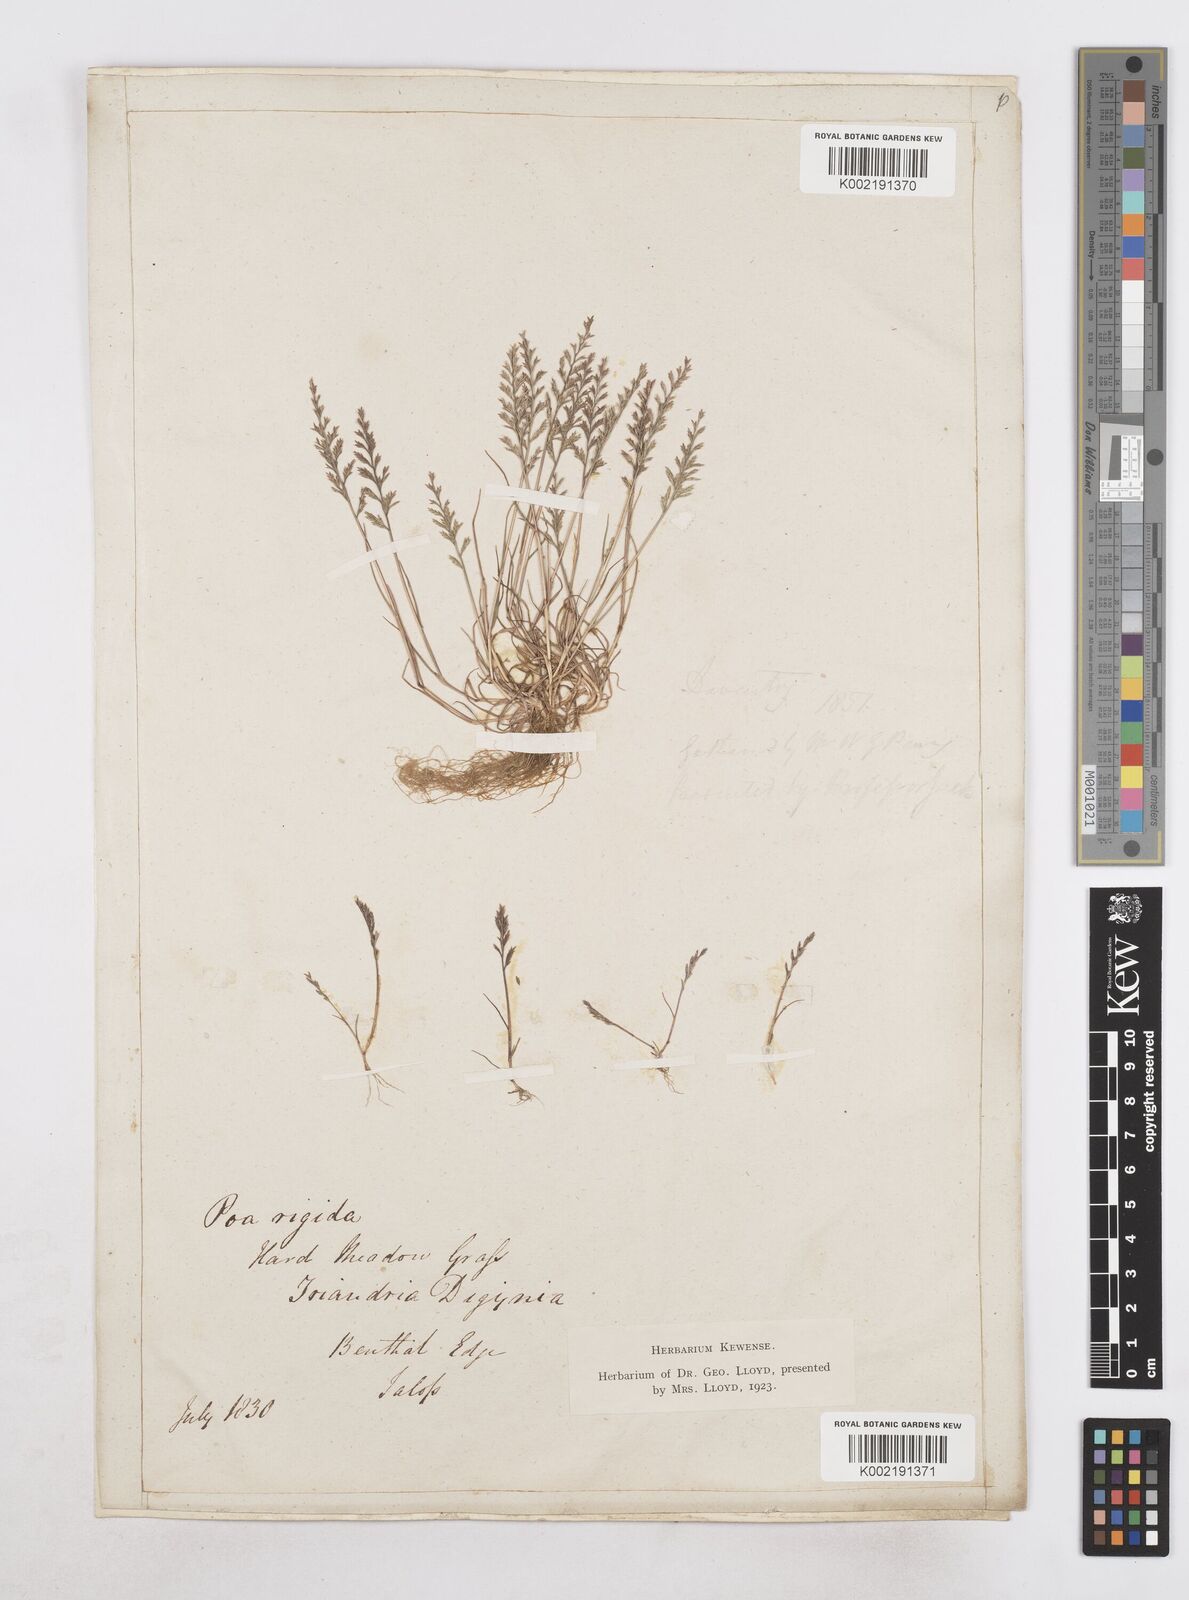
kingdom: Plantae
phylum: Tracheophyta
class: Liliopsida
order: Poales
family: Poaceae
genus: Catapodium
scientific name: Catapodium rigidum
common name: Fern-grass
